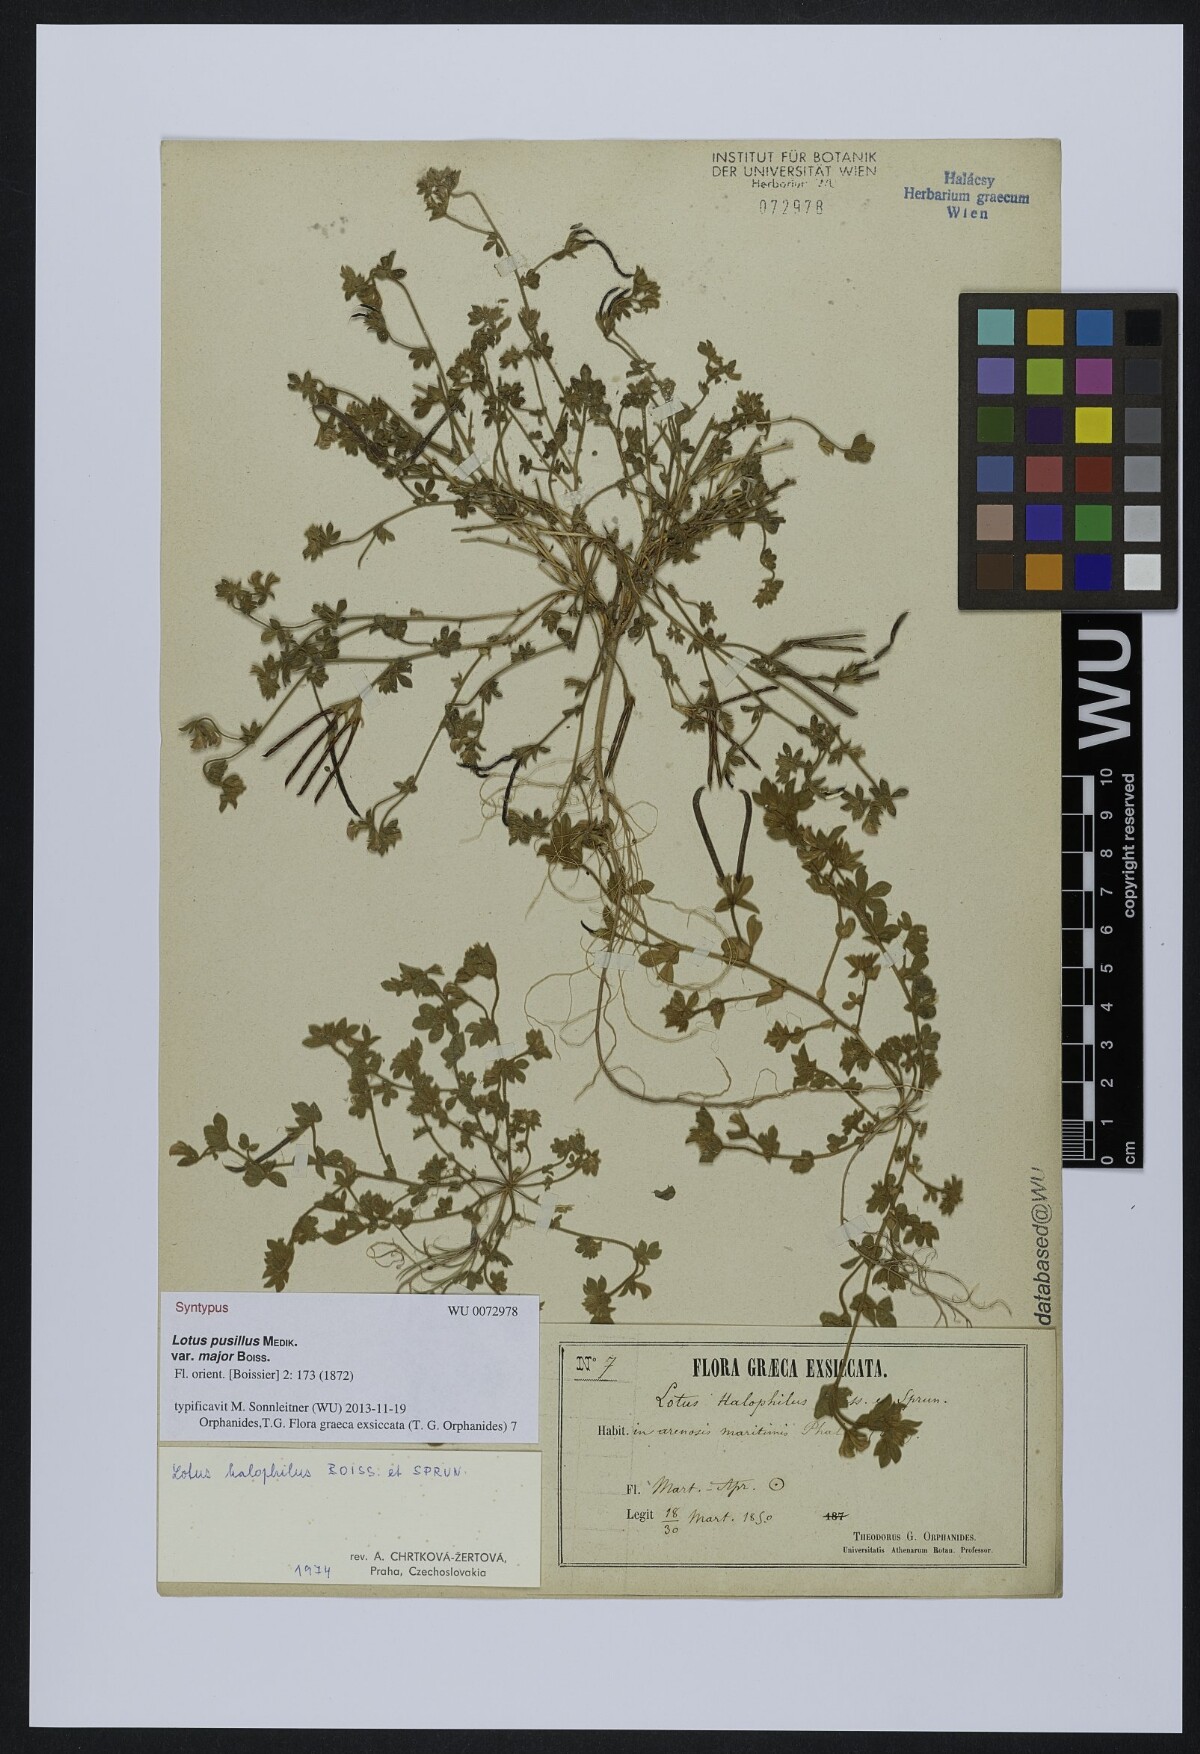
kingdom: Plantae
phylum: Tracheophyta
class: Magnoliopsida
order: Fabales
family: Fabaceae
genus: Lotus
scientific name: Lotus halophilus
